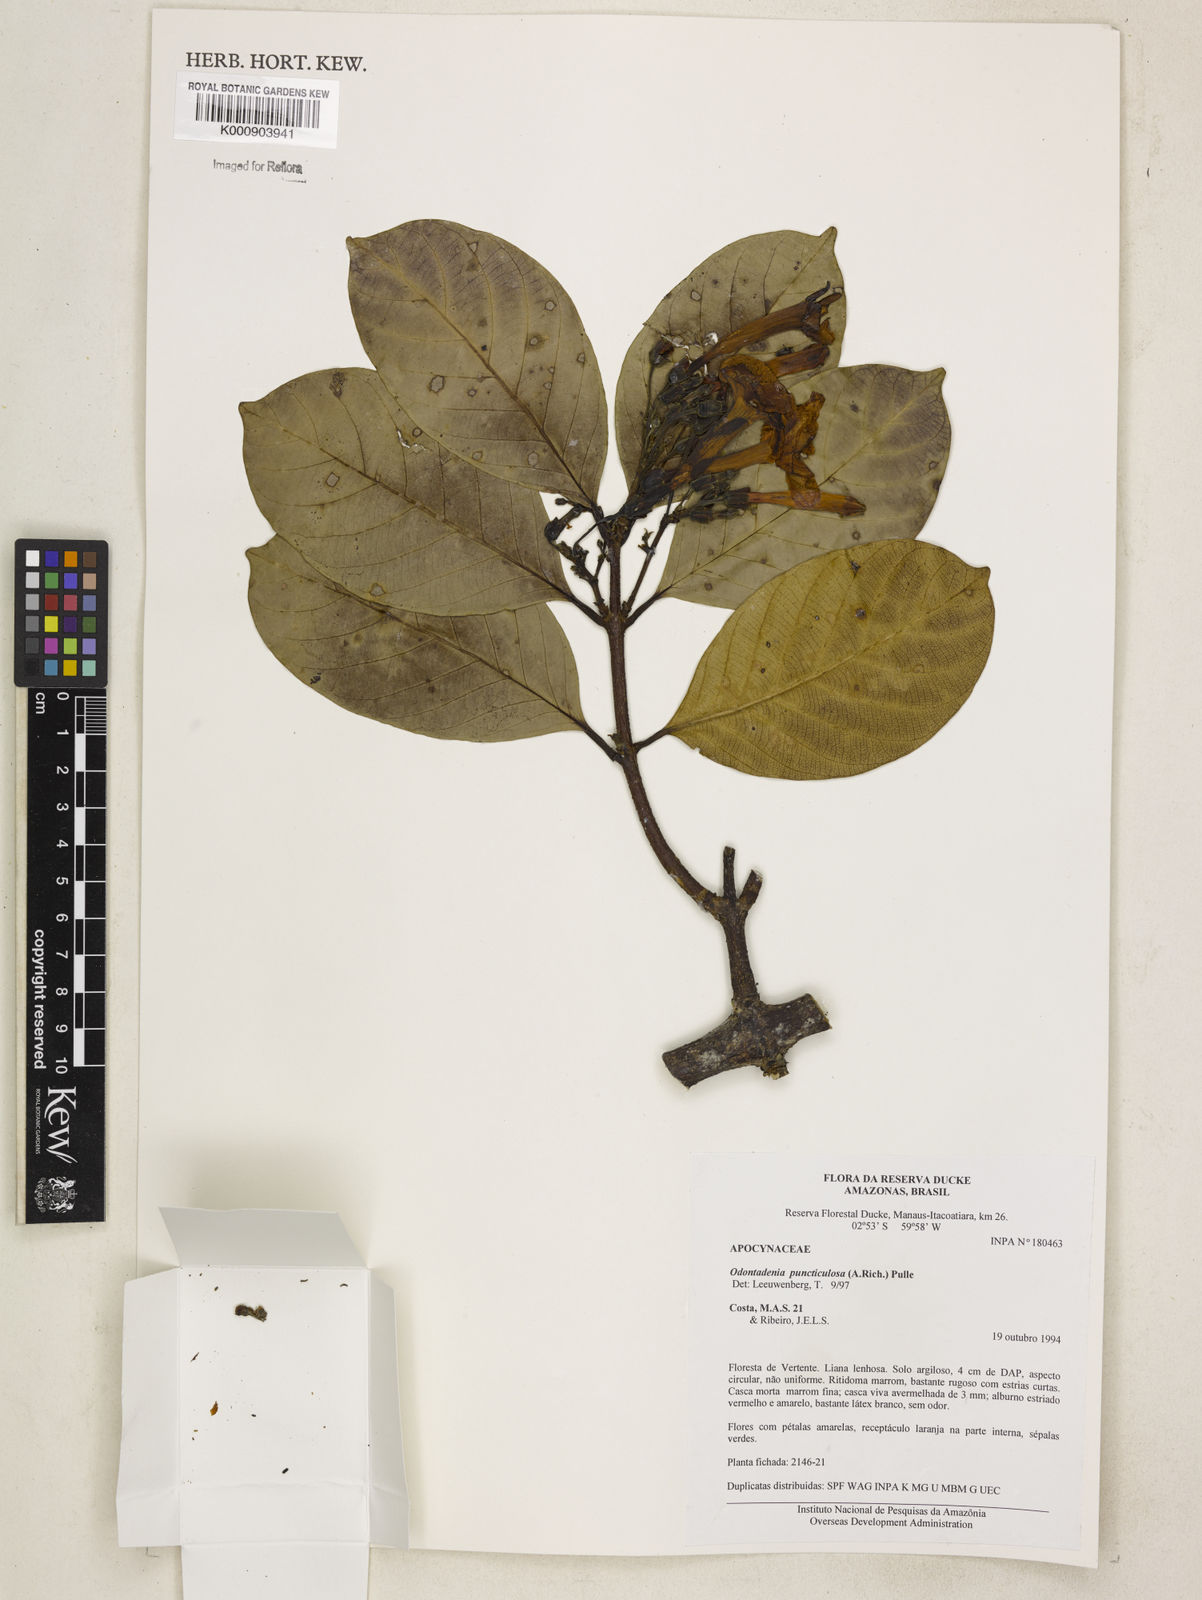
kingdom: Plantae
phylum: Tracheophyta
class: Magnoliopsida
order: Gentianales
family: Apocynaceae
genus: Odontadenia
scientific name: Odontadenia puncticulosa
